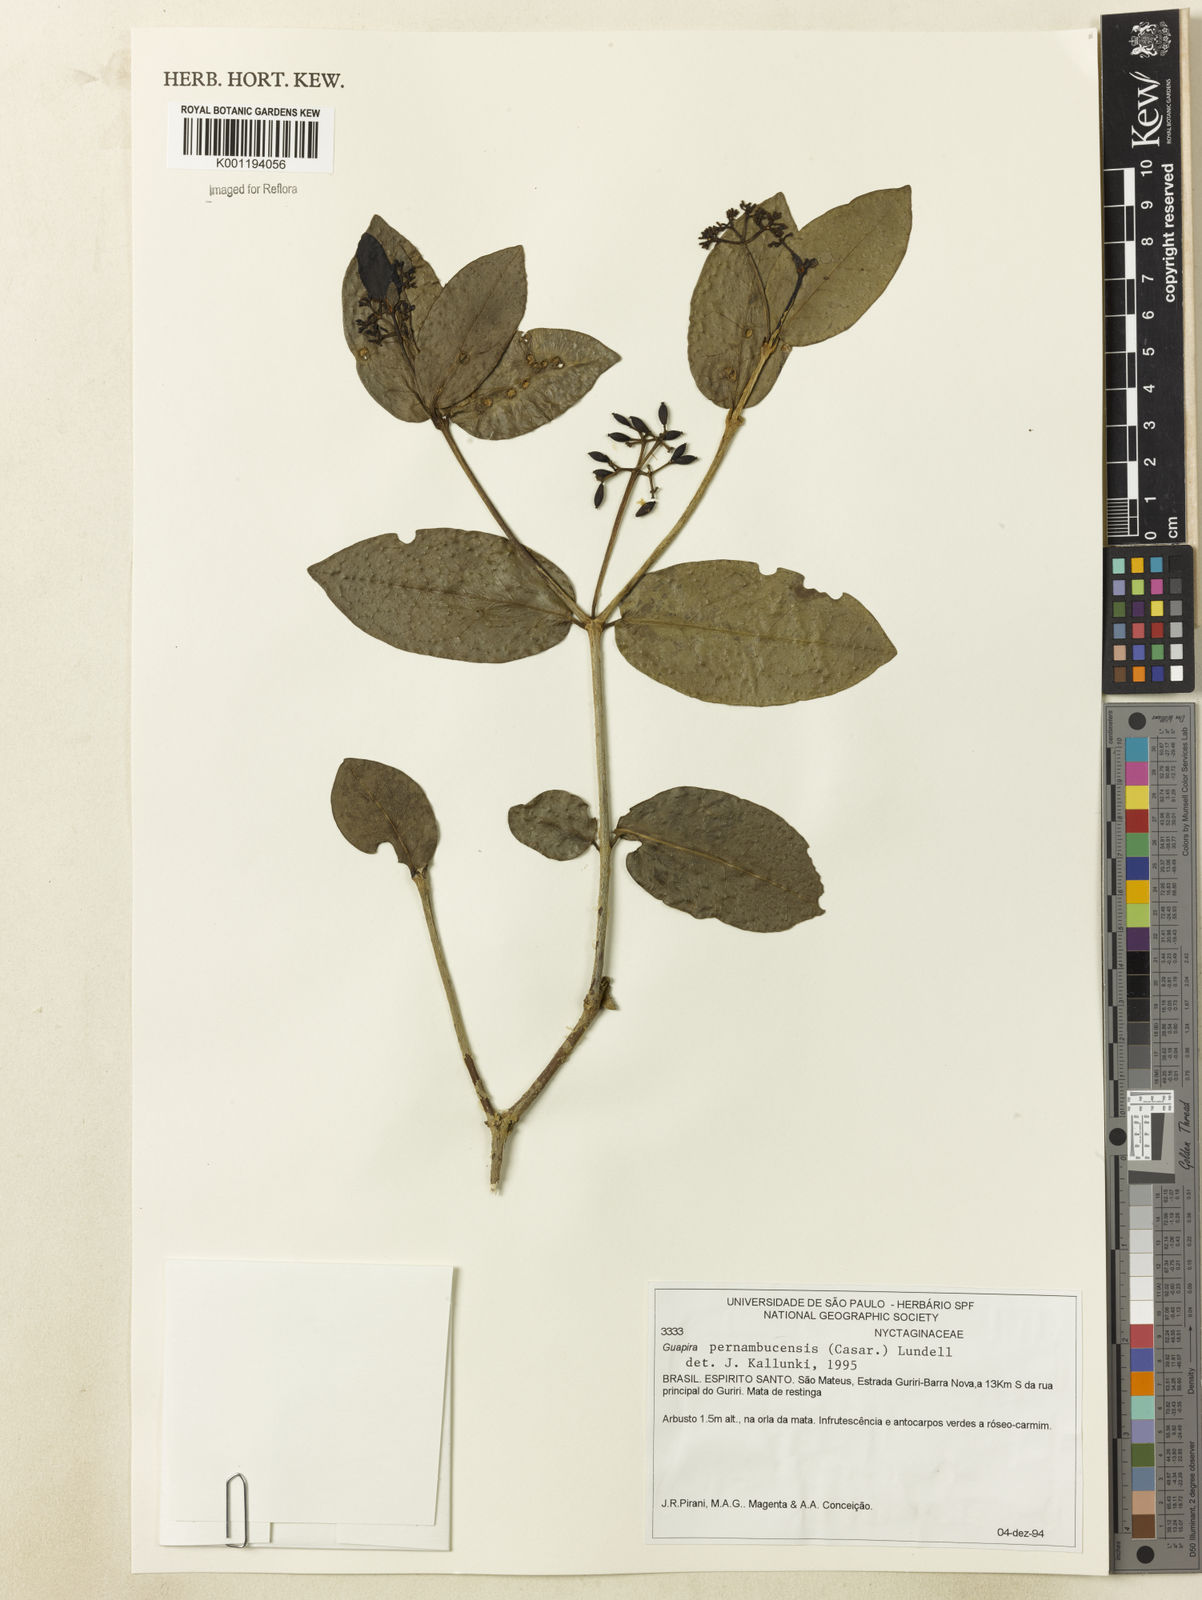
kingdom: Plantae
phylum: Tracheophyta
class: Magnoliopsida
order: Caryophyllales
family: Nyctaginaceae
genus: Guapira
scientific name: Guapira pernambucensis
